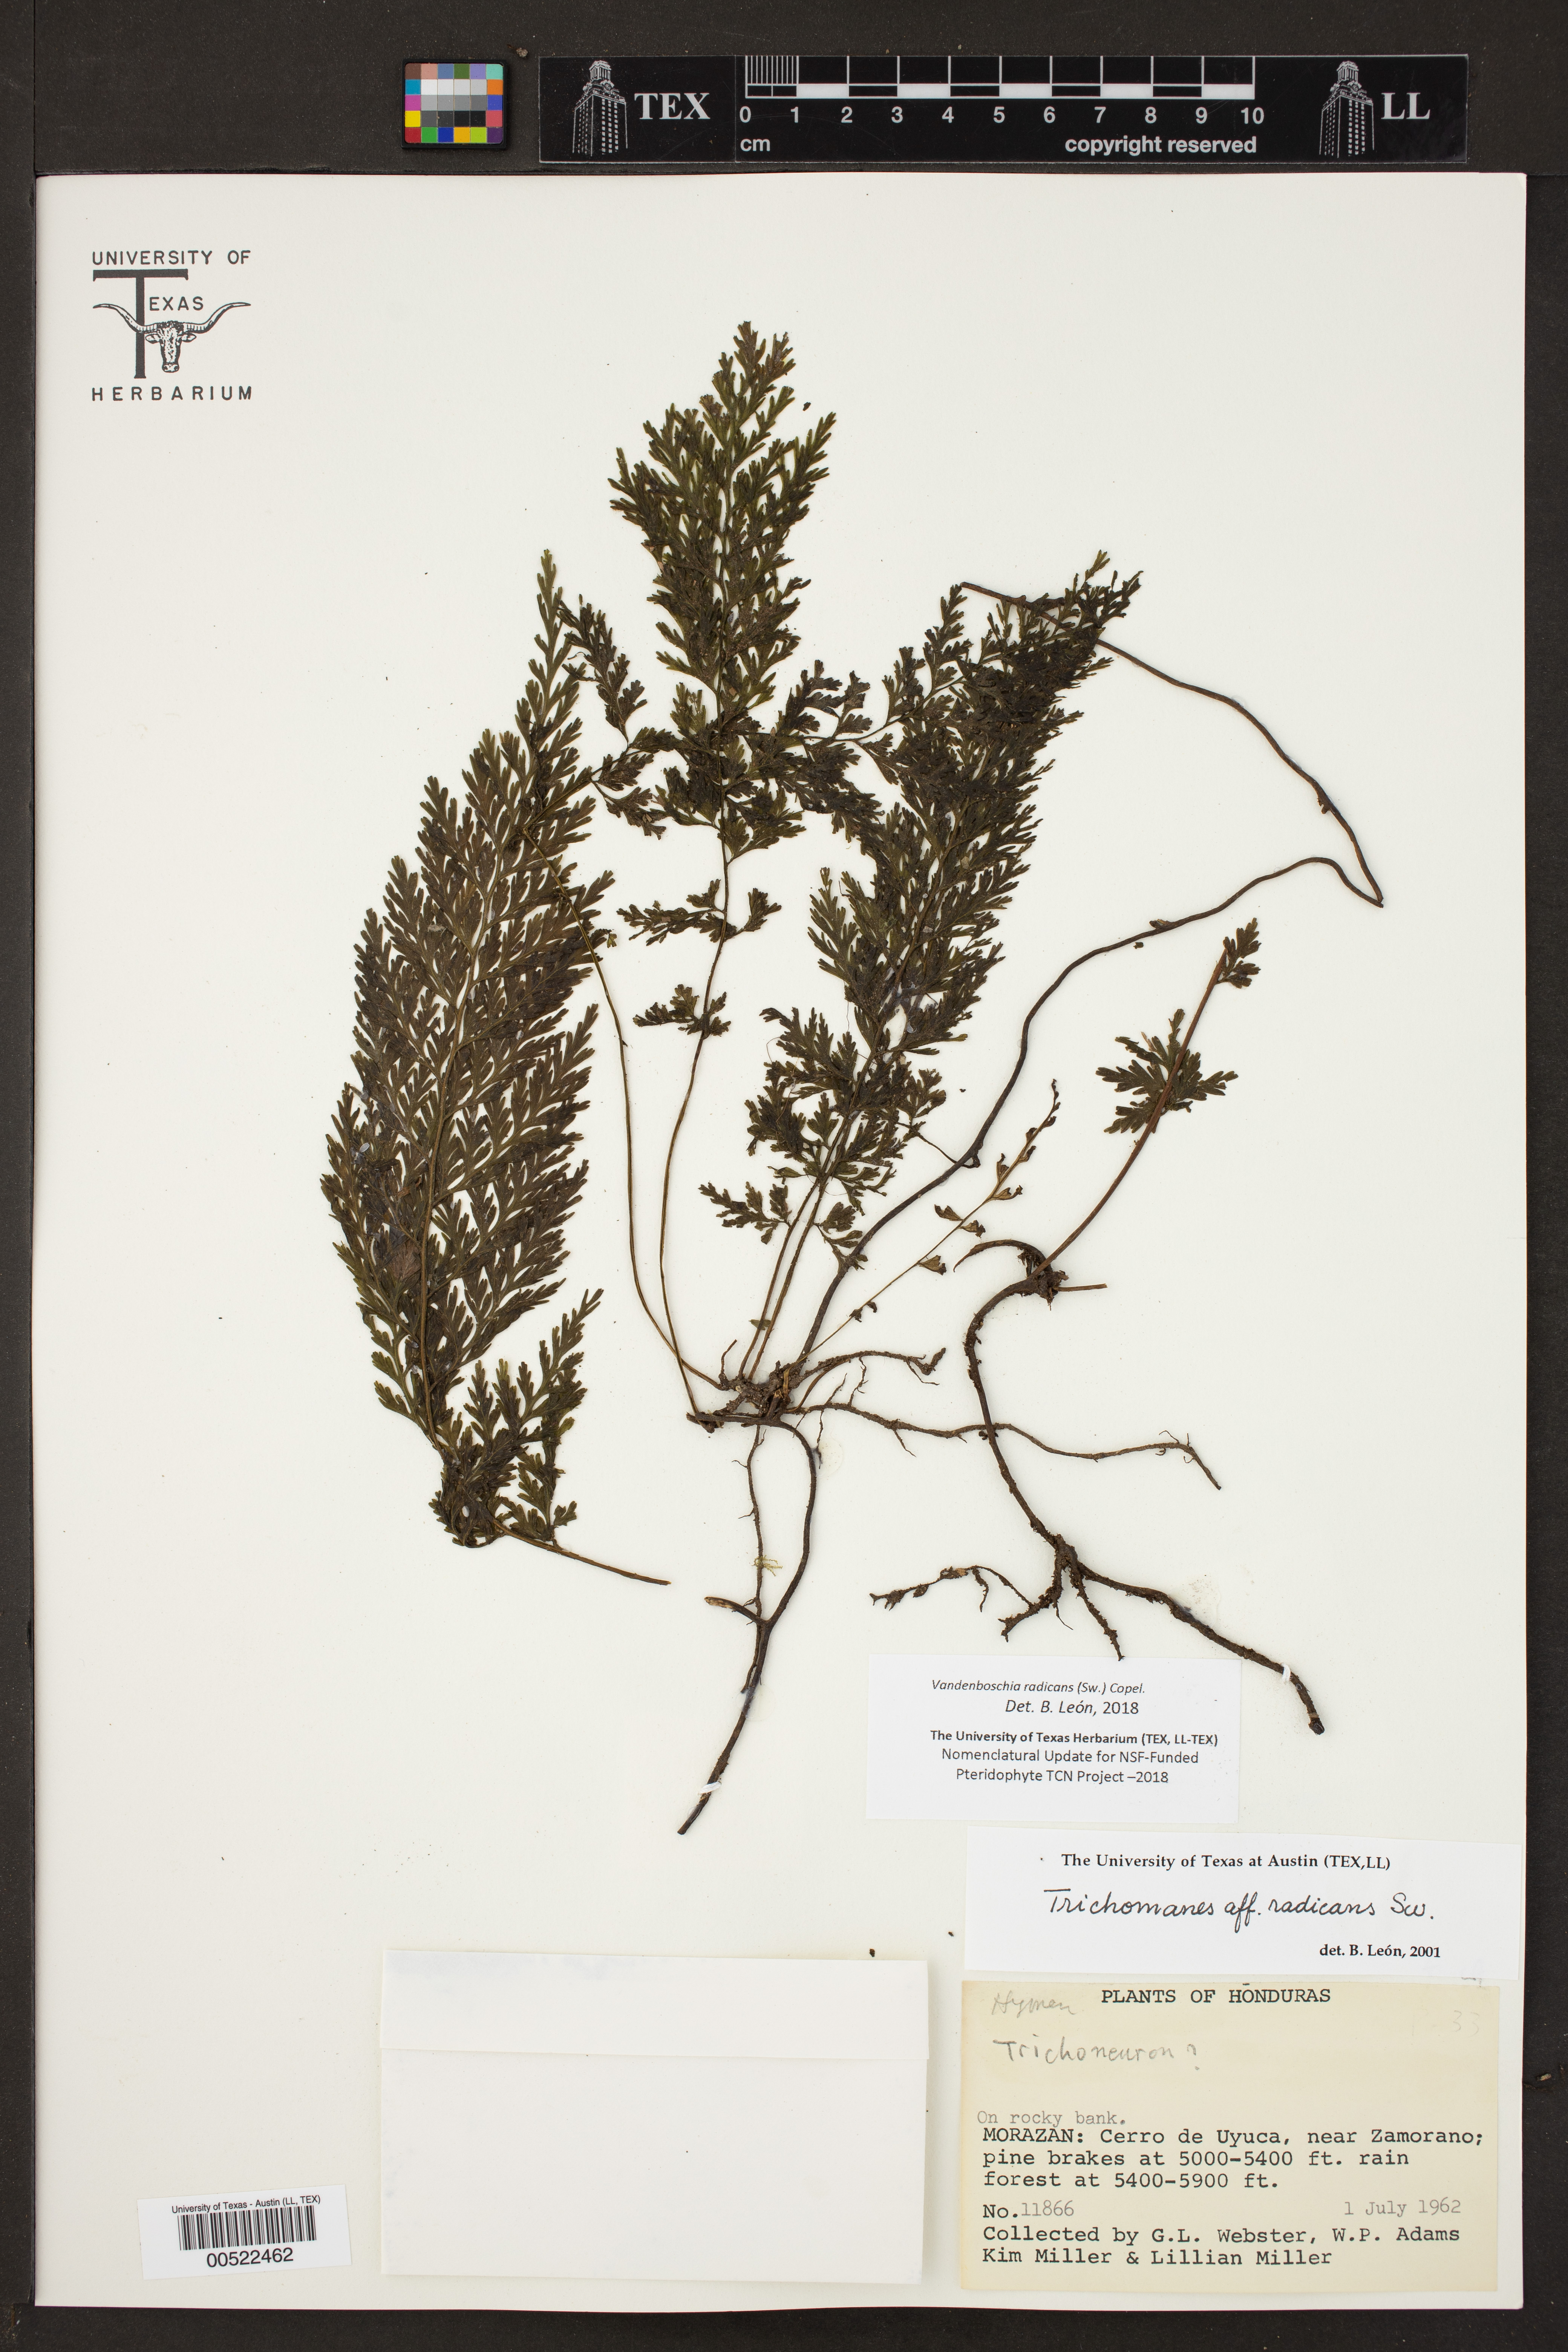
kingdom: Plantae
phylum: Tracheophyta
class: Polypodiopsida
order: Hymenophyllales
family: Hymenophyllaceae
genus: Vandenboschia
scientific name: Vandenboschia radicans
